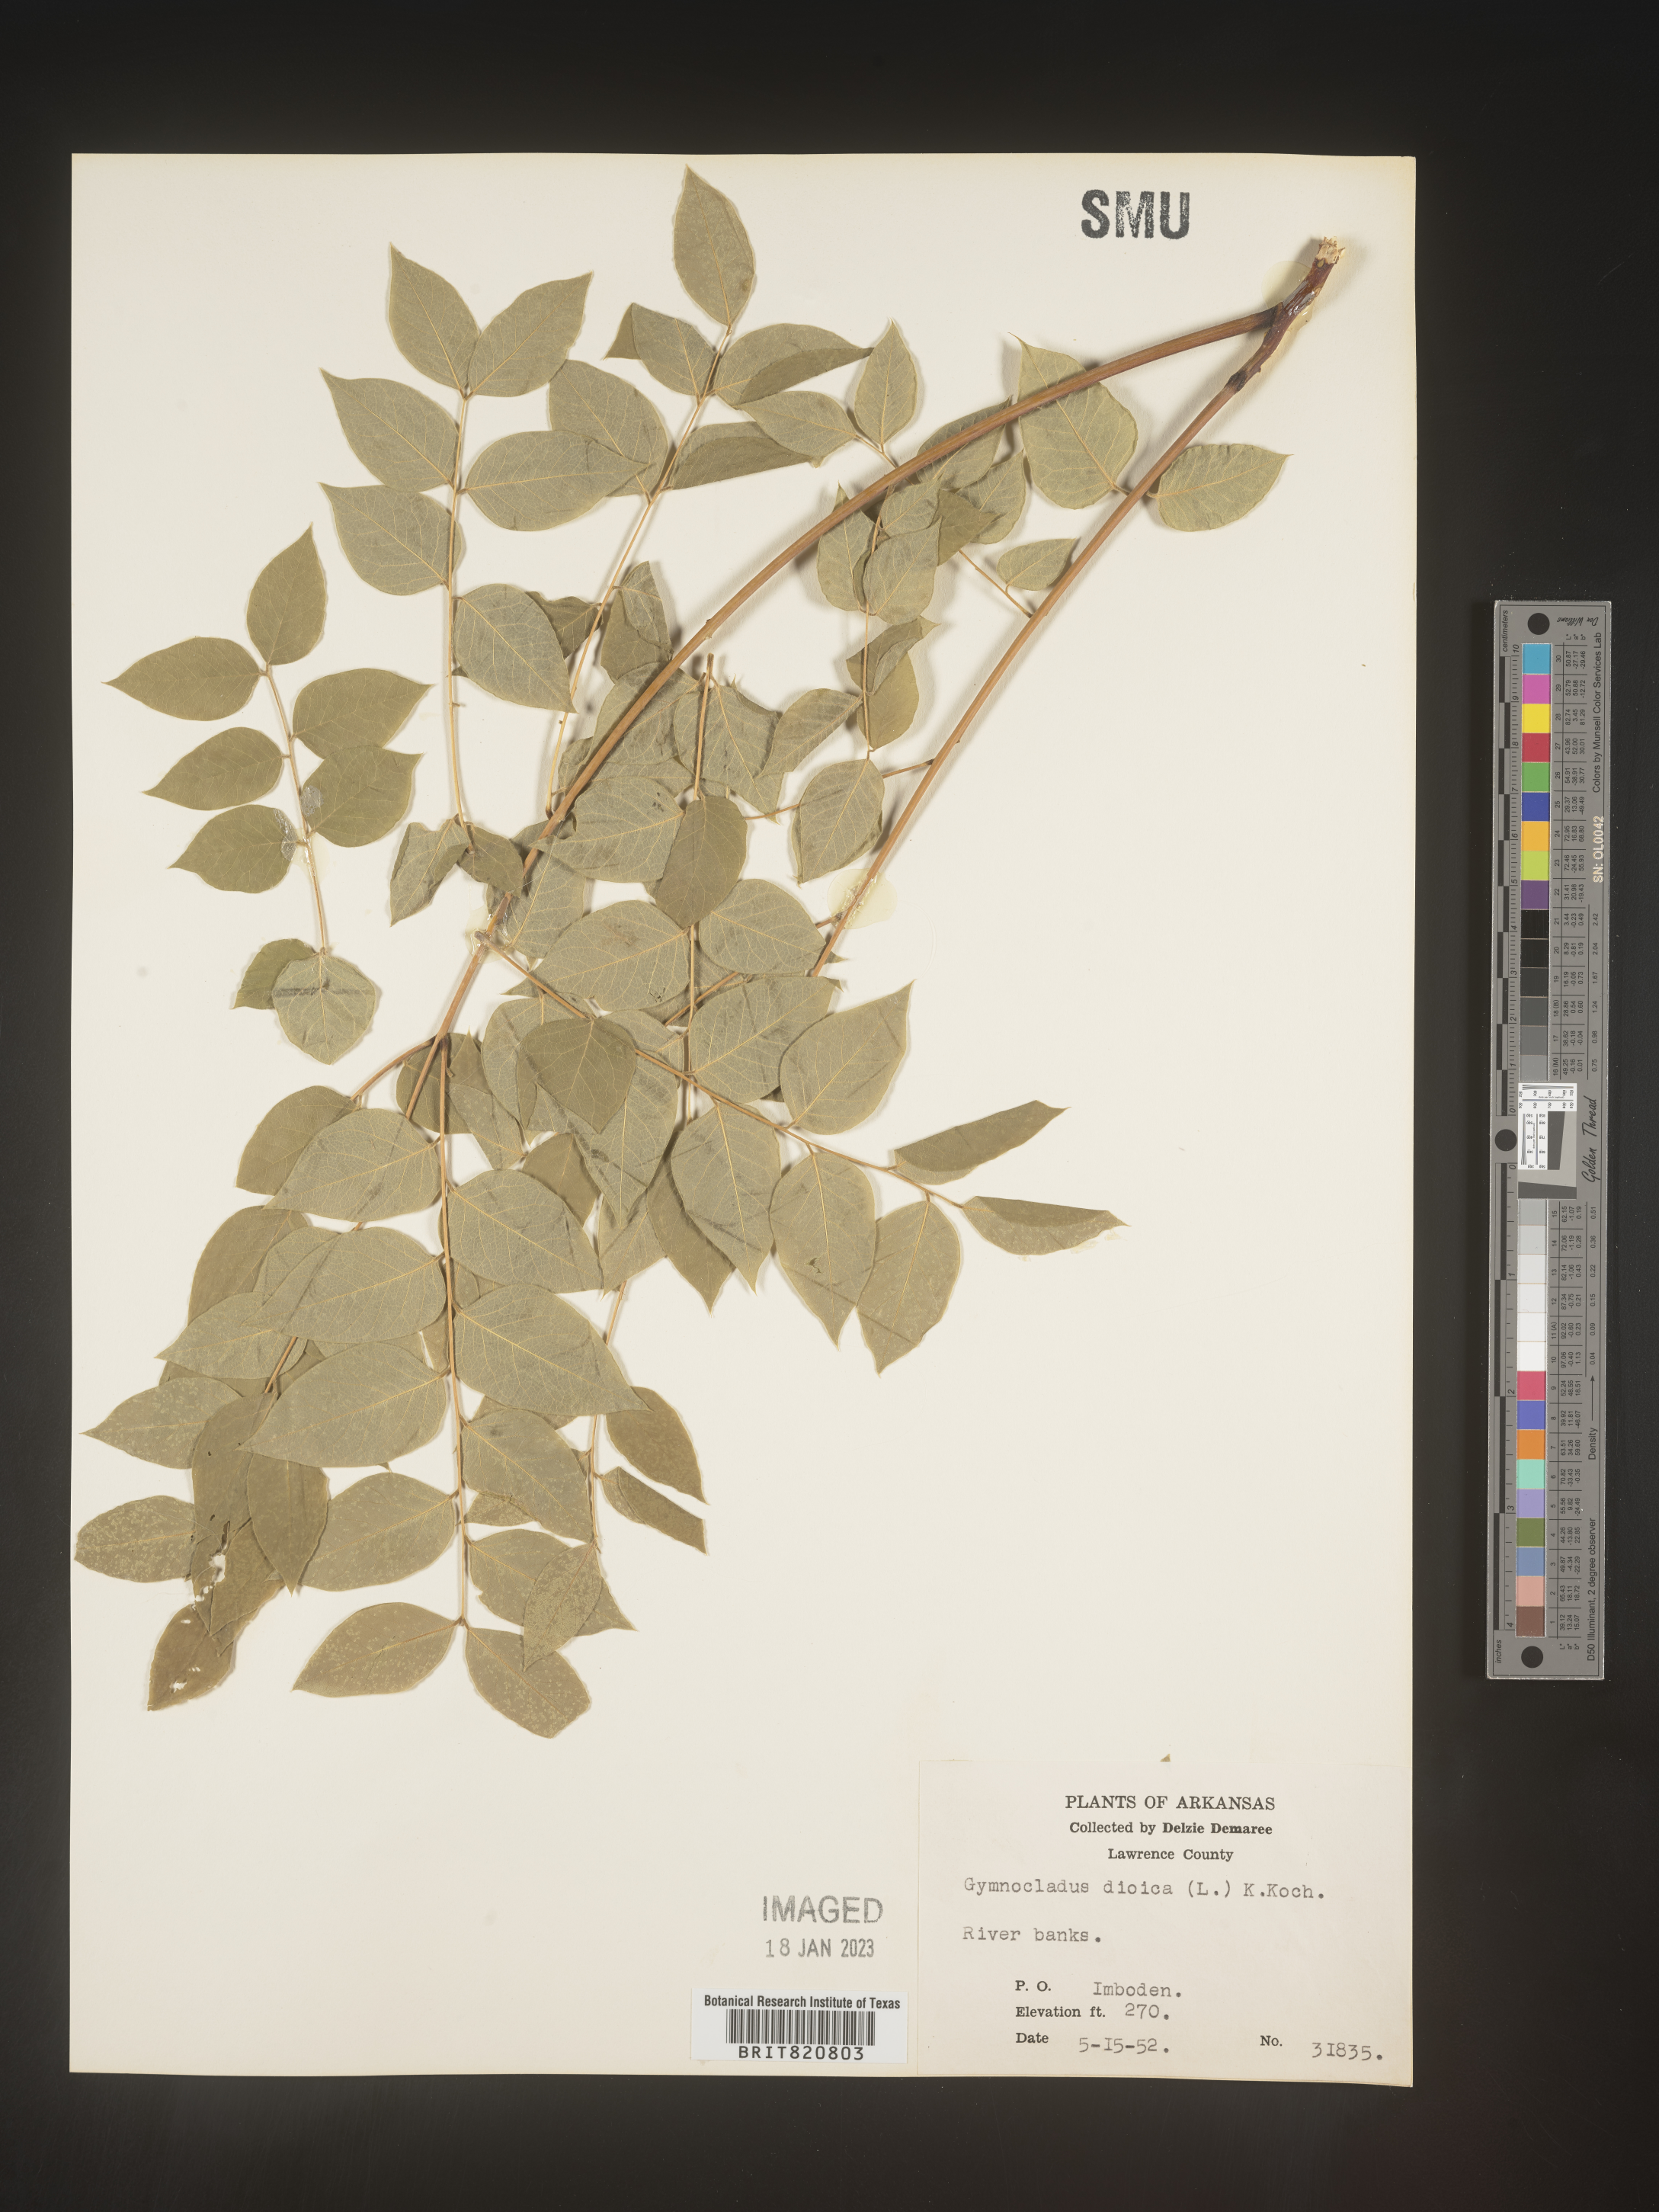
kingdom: Plantae
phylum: Tracheophyta
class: Magnoliopsida
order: Fabales
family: Fabaceae
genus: Gymnocladus
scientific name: Gymnocladus
